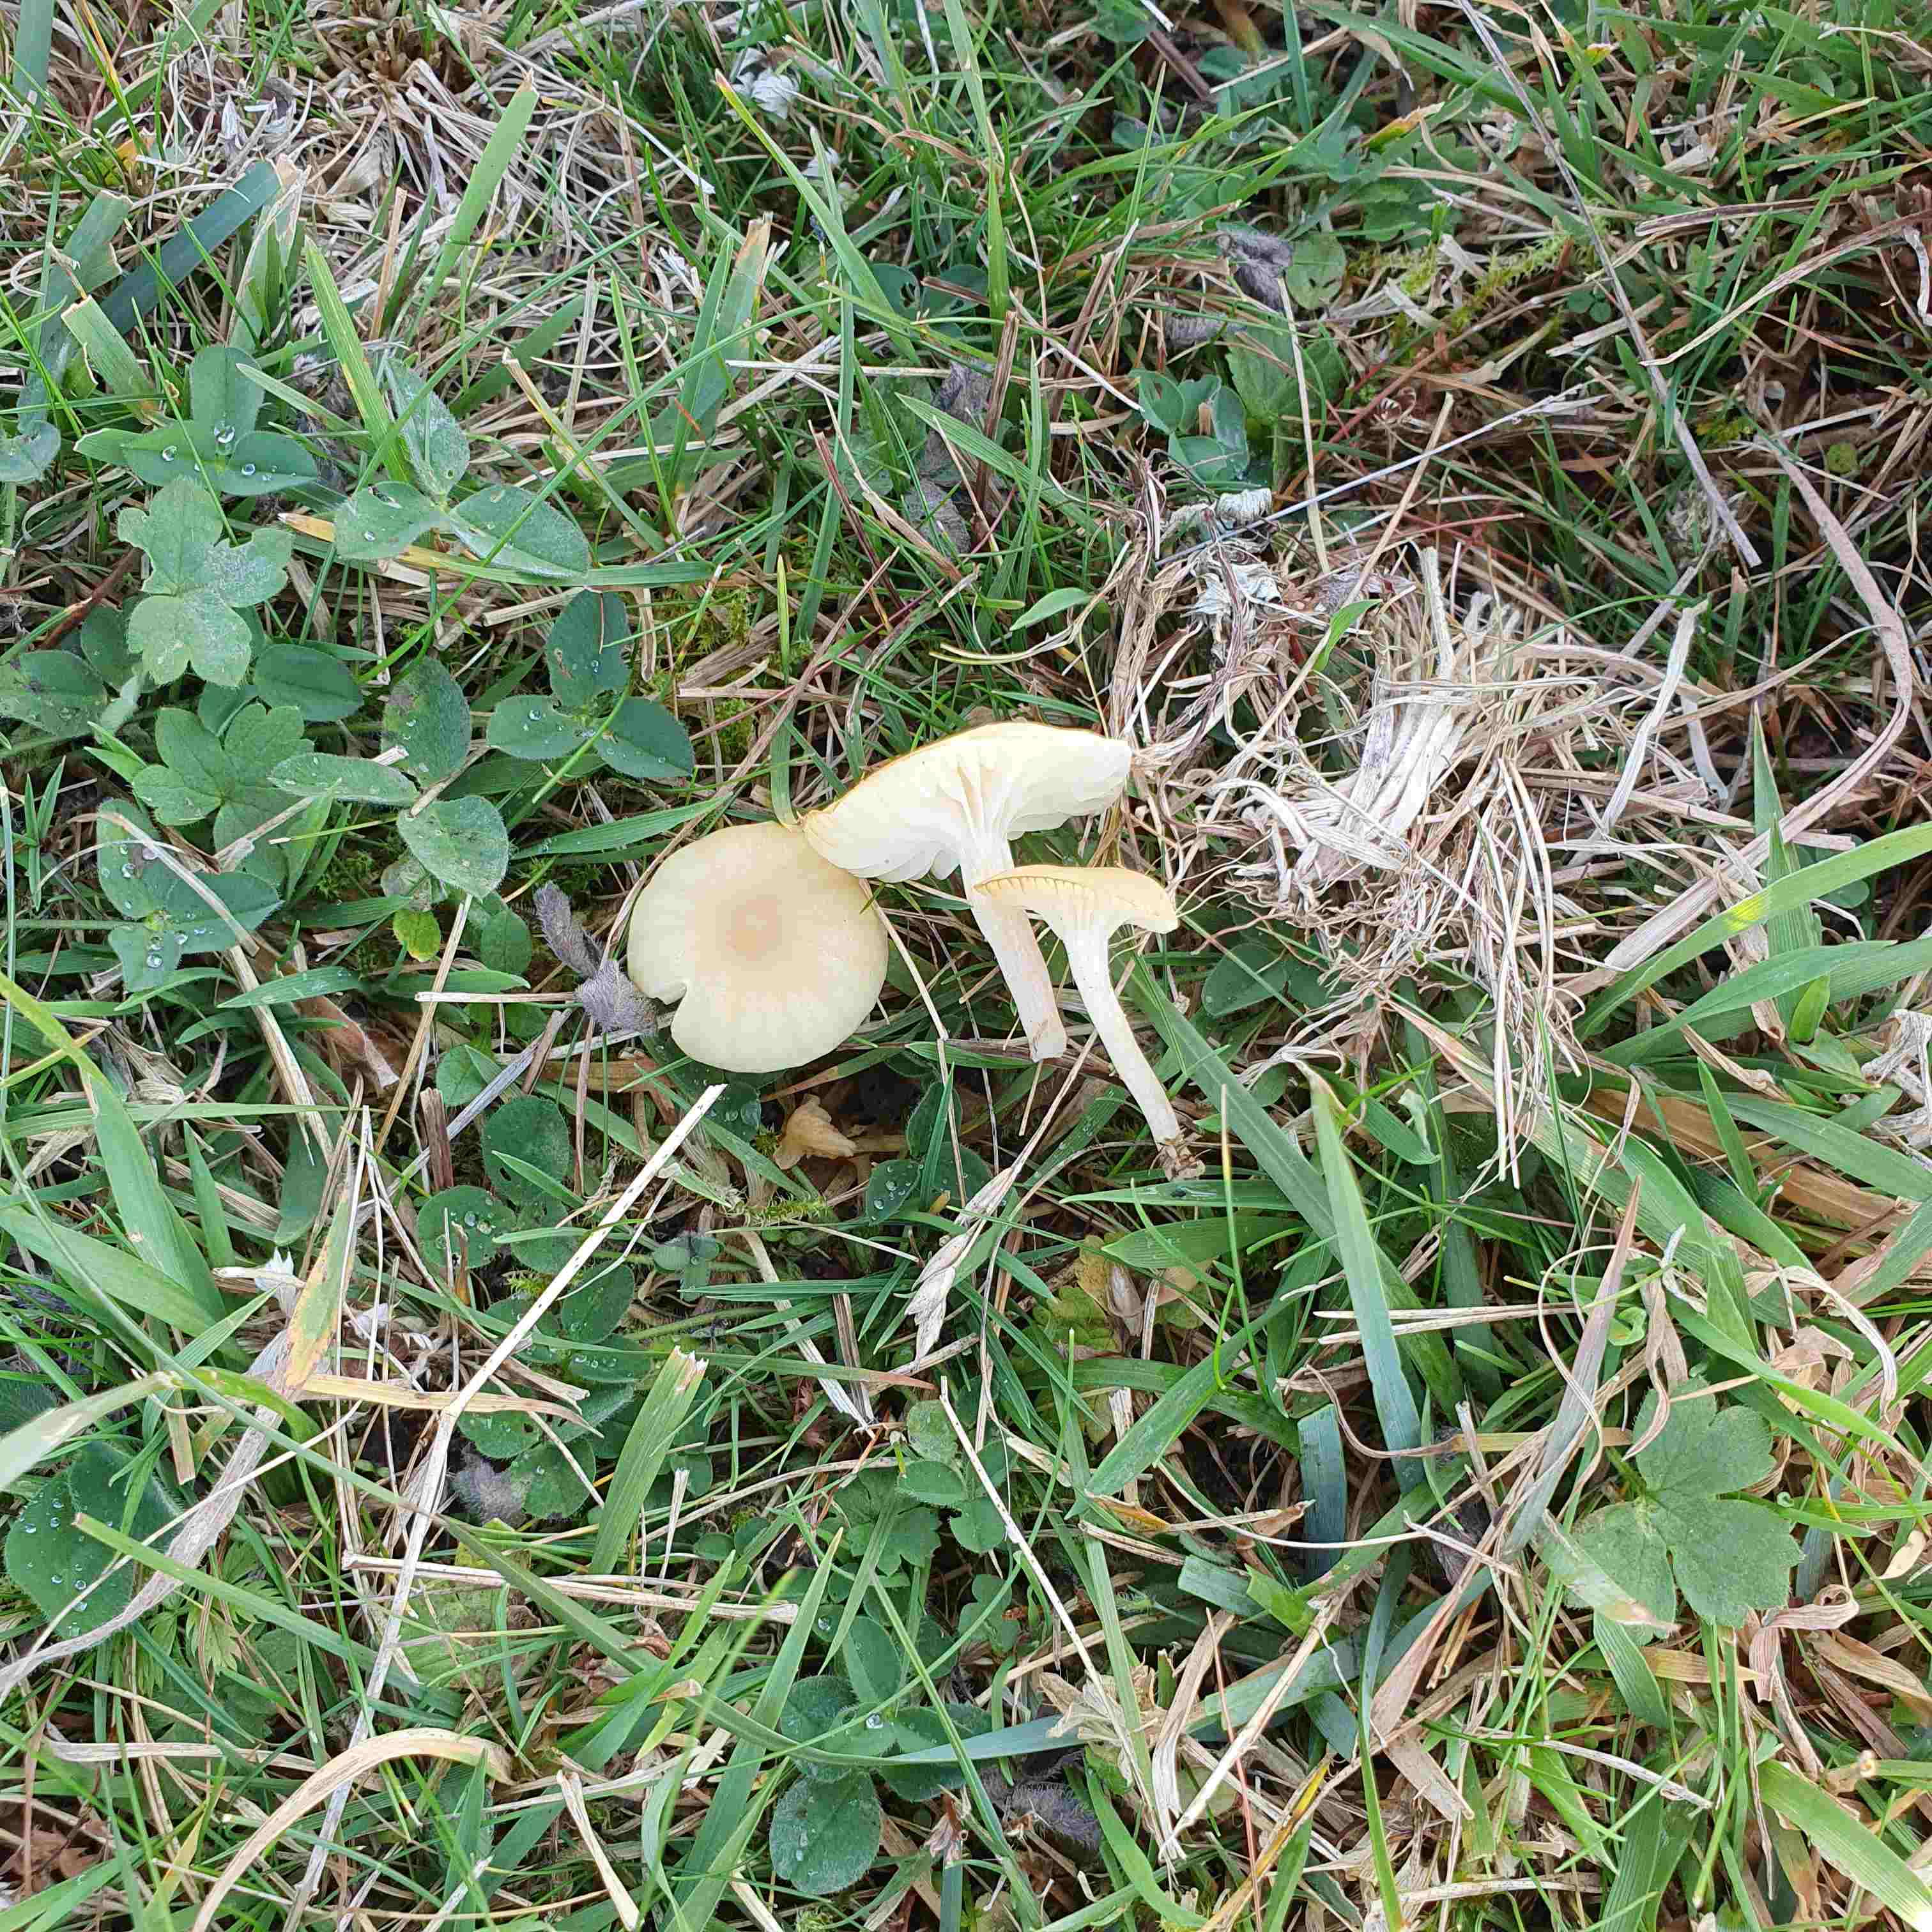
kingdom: Fungi
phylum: Basidiomycota
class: Agaricomycetes
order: Agaricales
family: Hygrophoraceae
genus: Cuphophyllus
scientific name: Cuphophyllus russocoriaceus
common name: ruslæder-vokshat
